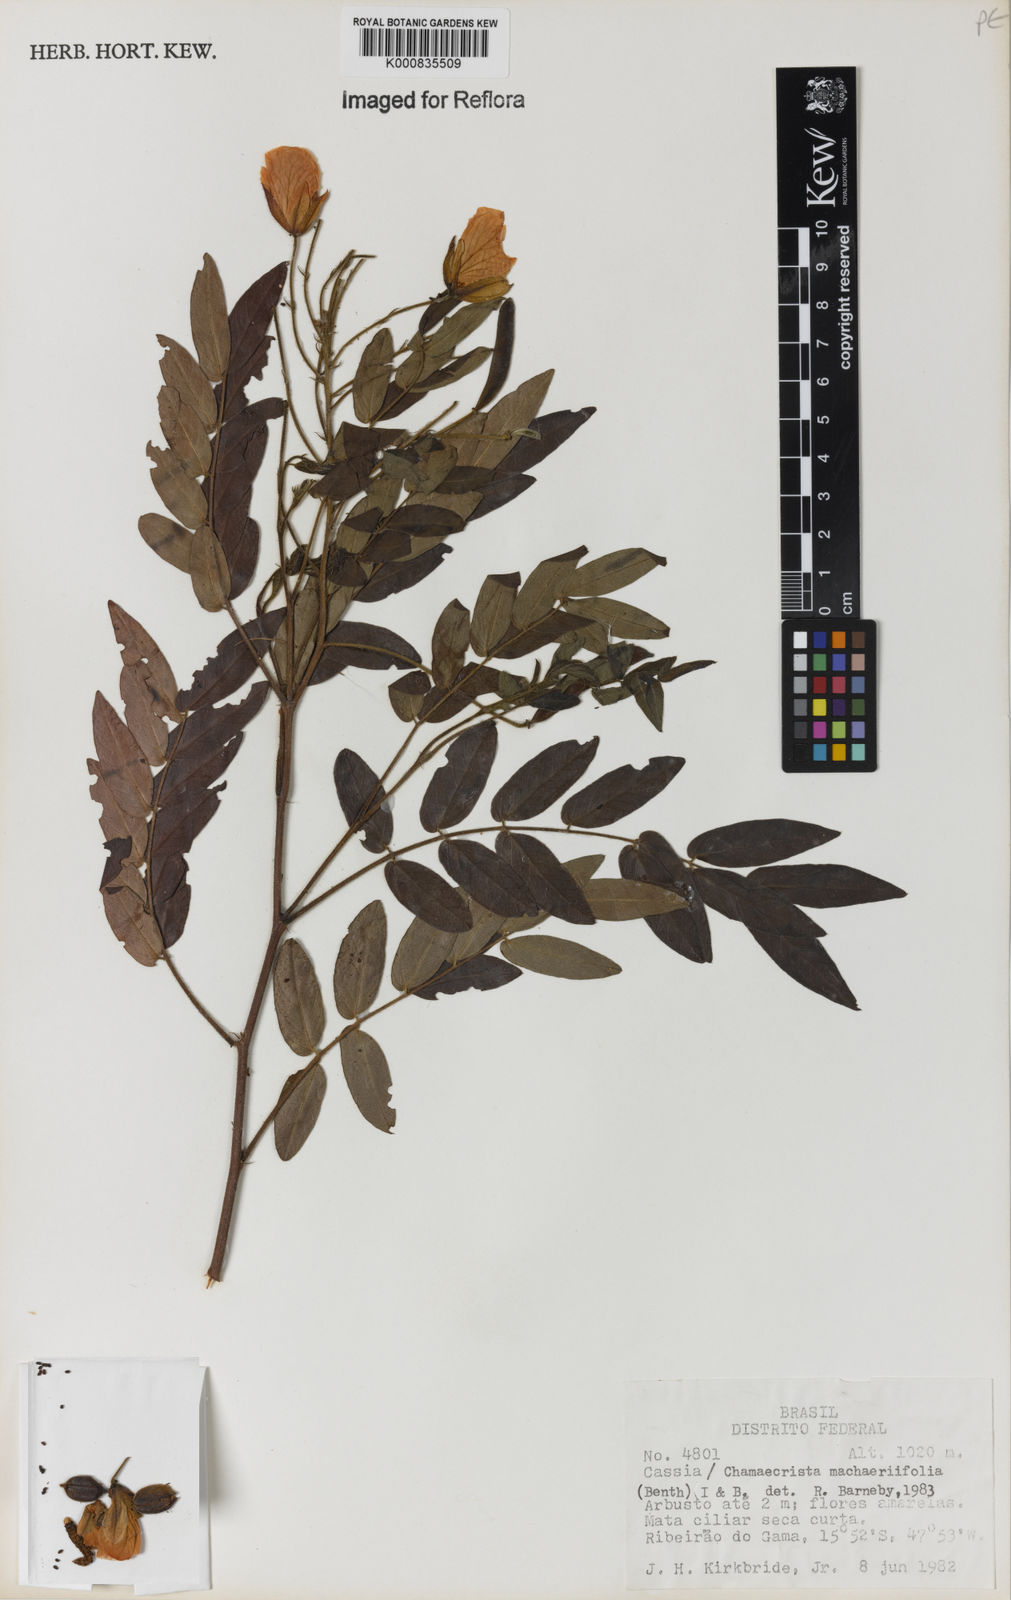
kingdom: Plantae
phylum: Tracheophyta
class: Magnoliopsida
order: Fabales
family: Fabaceae
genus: Chamaecrista
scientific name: Chamaecrista machaeriifolia
